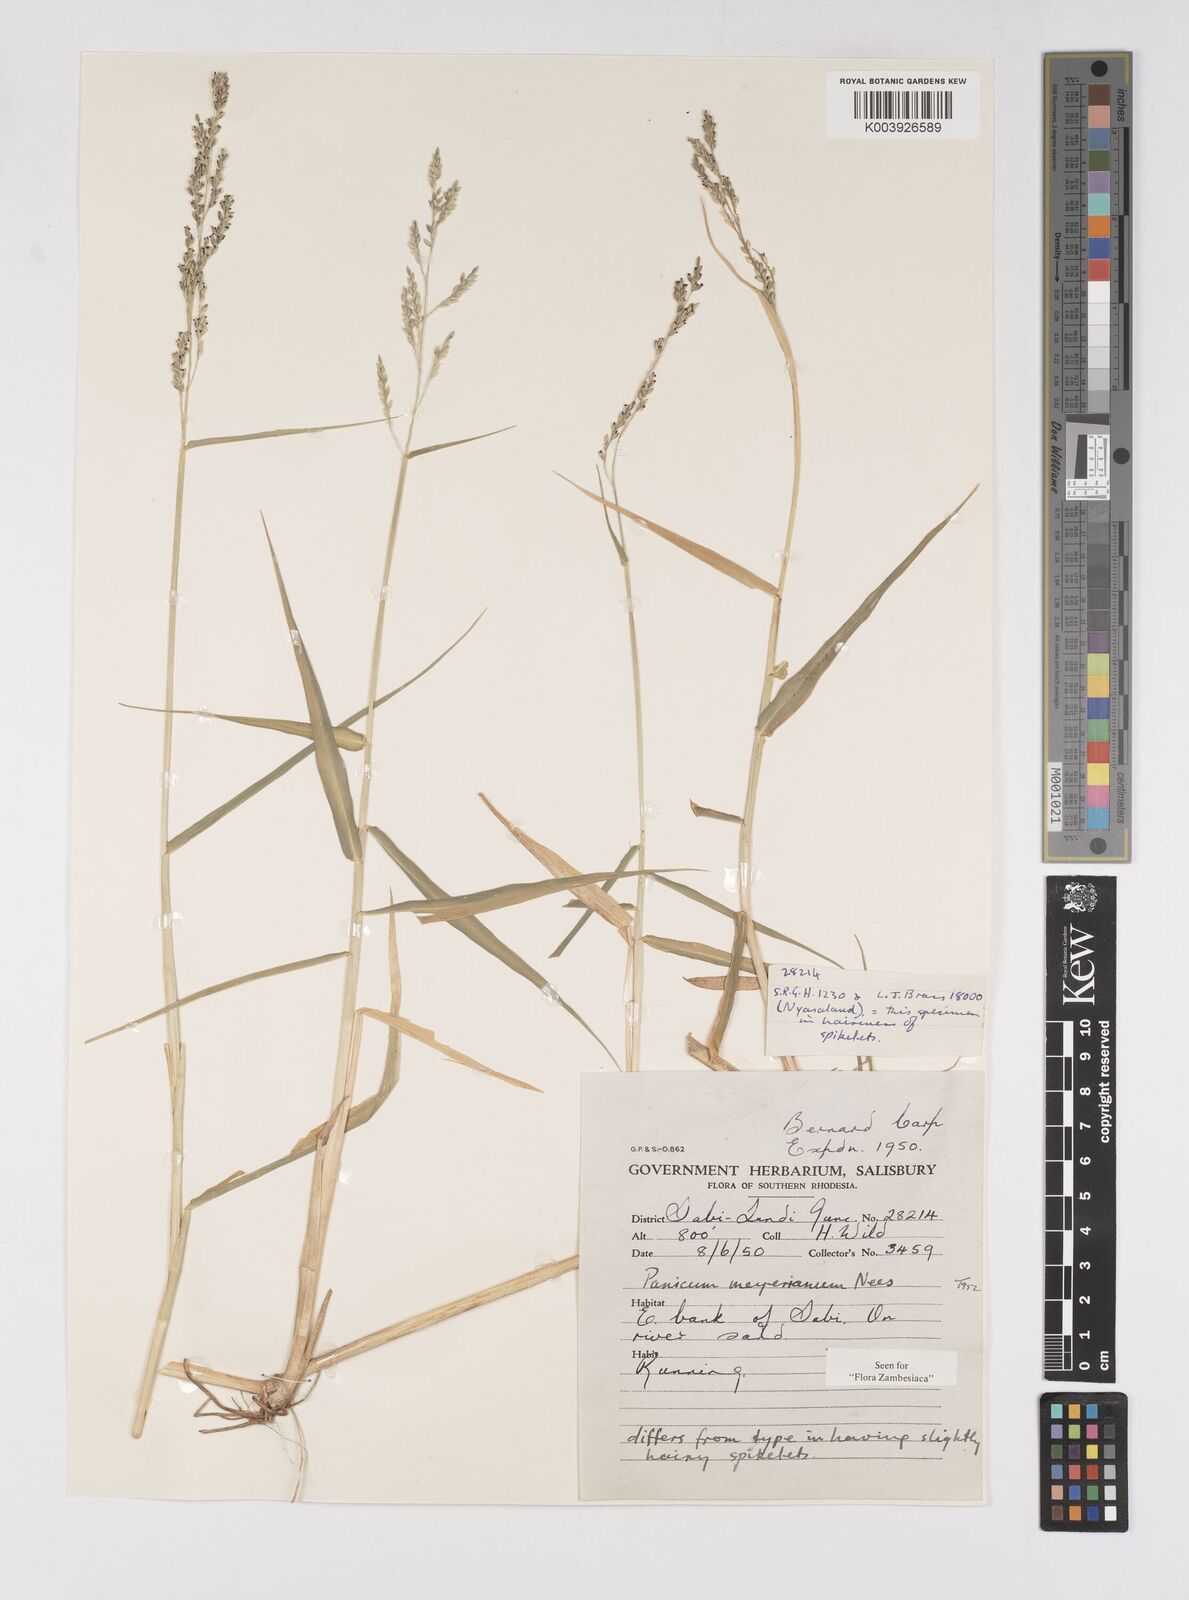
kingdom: Plantae
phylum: Tracheophyta
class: Liliopsida
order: Poales
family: Poaceae
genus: Eriochloa
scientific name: Eriochloa meyeriana
